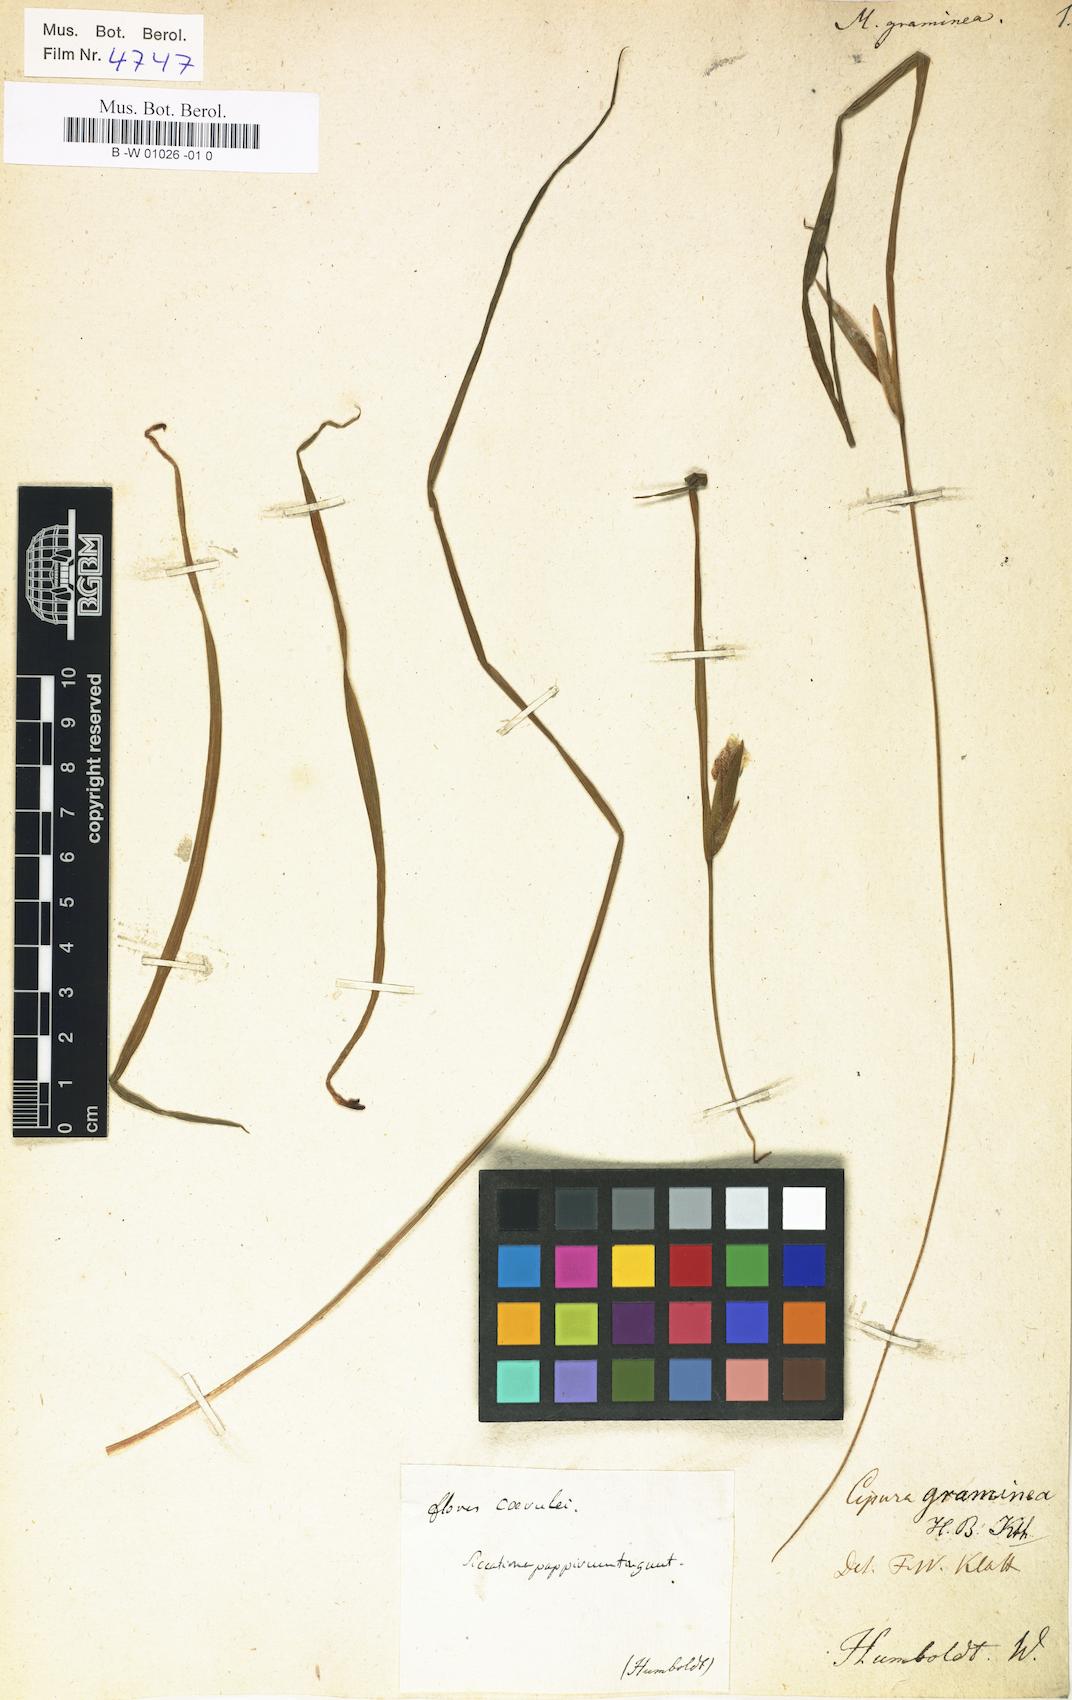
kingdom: Plantae
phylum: Tracheophyta
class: Liliopsida
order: Asparagales
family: Iridaceae
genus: Cipura
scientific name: Cipura paludosa
